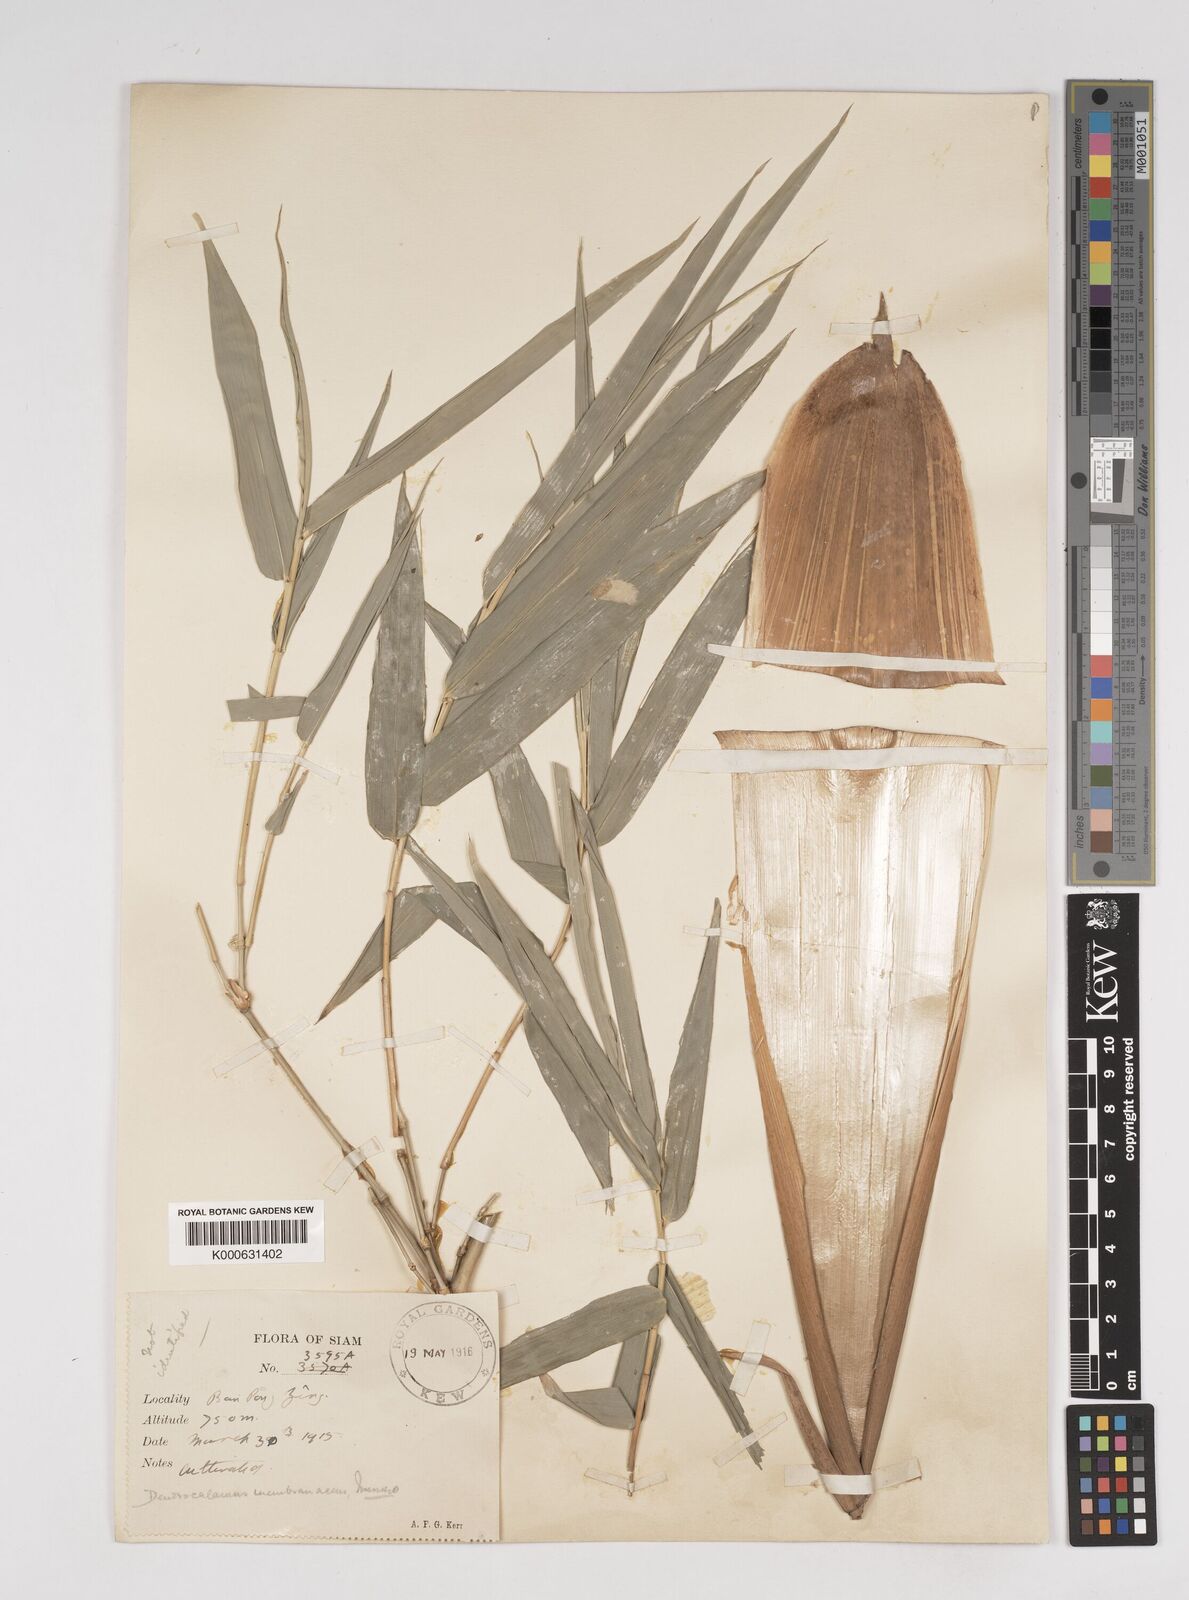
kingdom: Plantae
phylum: Tracheophyta
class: Liliopsida
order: Poales
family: Poaceae
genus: Dendrocalamus
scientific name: Dendrocalamus
